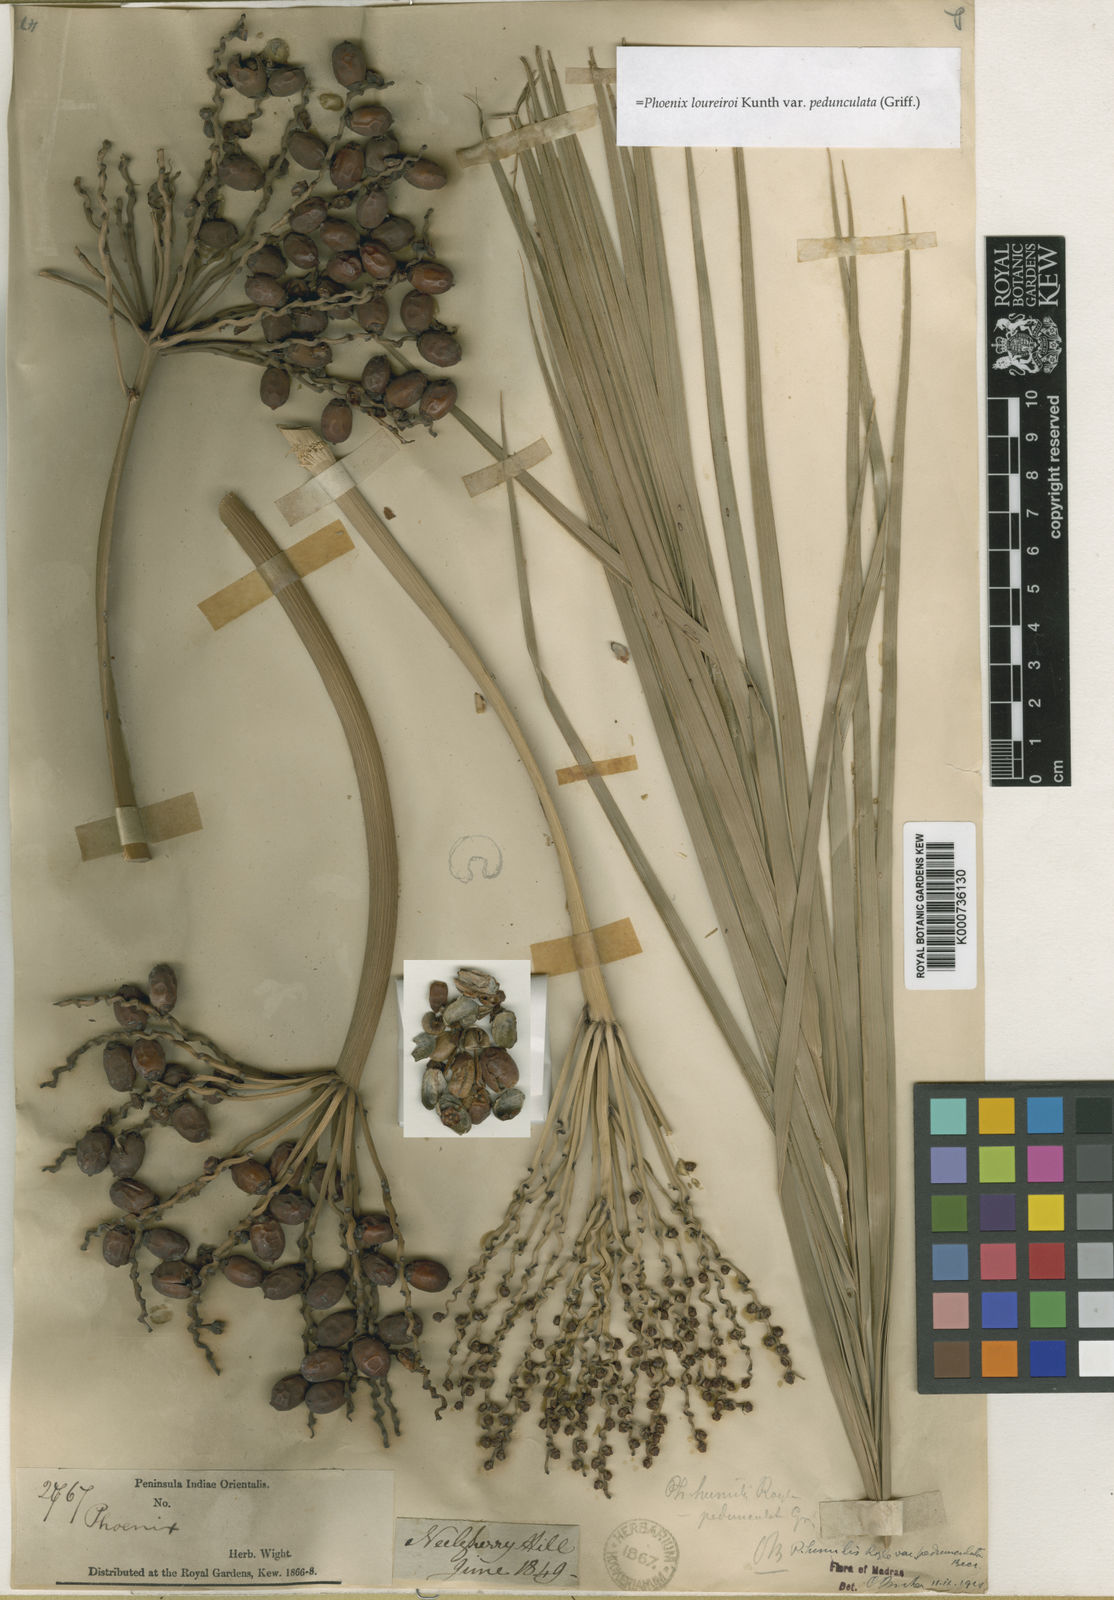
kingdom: Plantae
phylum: Tracheophyta
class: Liliopsida
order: Arecales
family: Arecaceae
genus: Phoenix
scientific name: Phoenix loureiroi
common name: Loureiro's palm
